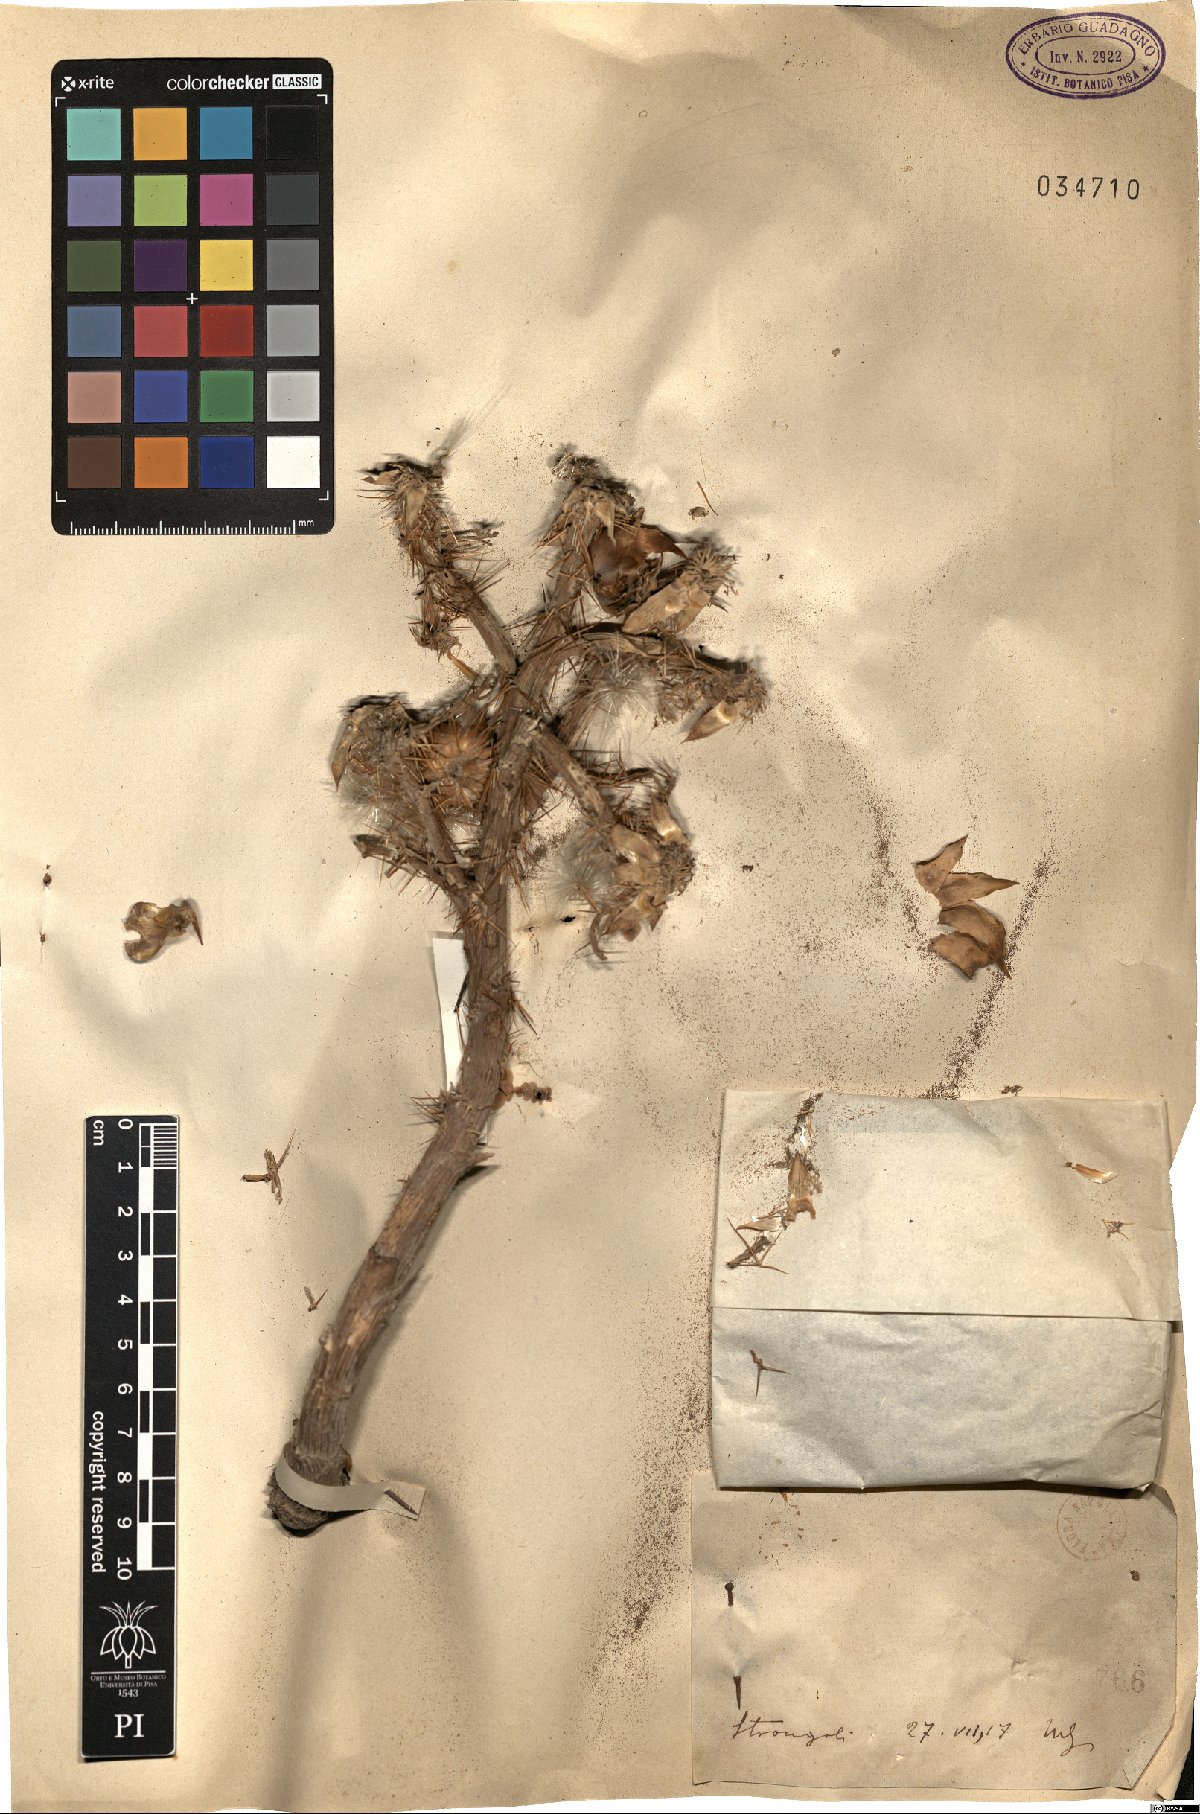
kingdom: Plantae
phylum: Tracheophyta
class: Magnoliopsida
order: Asterales
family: Asteraceae
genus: Cynara
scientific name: Cynara
